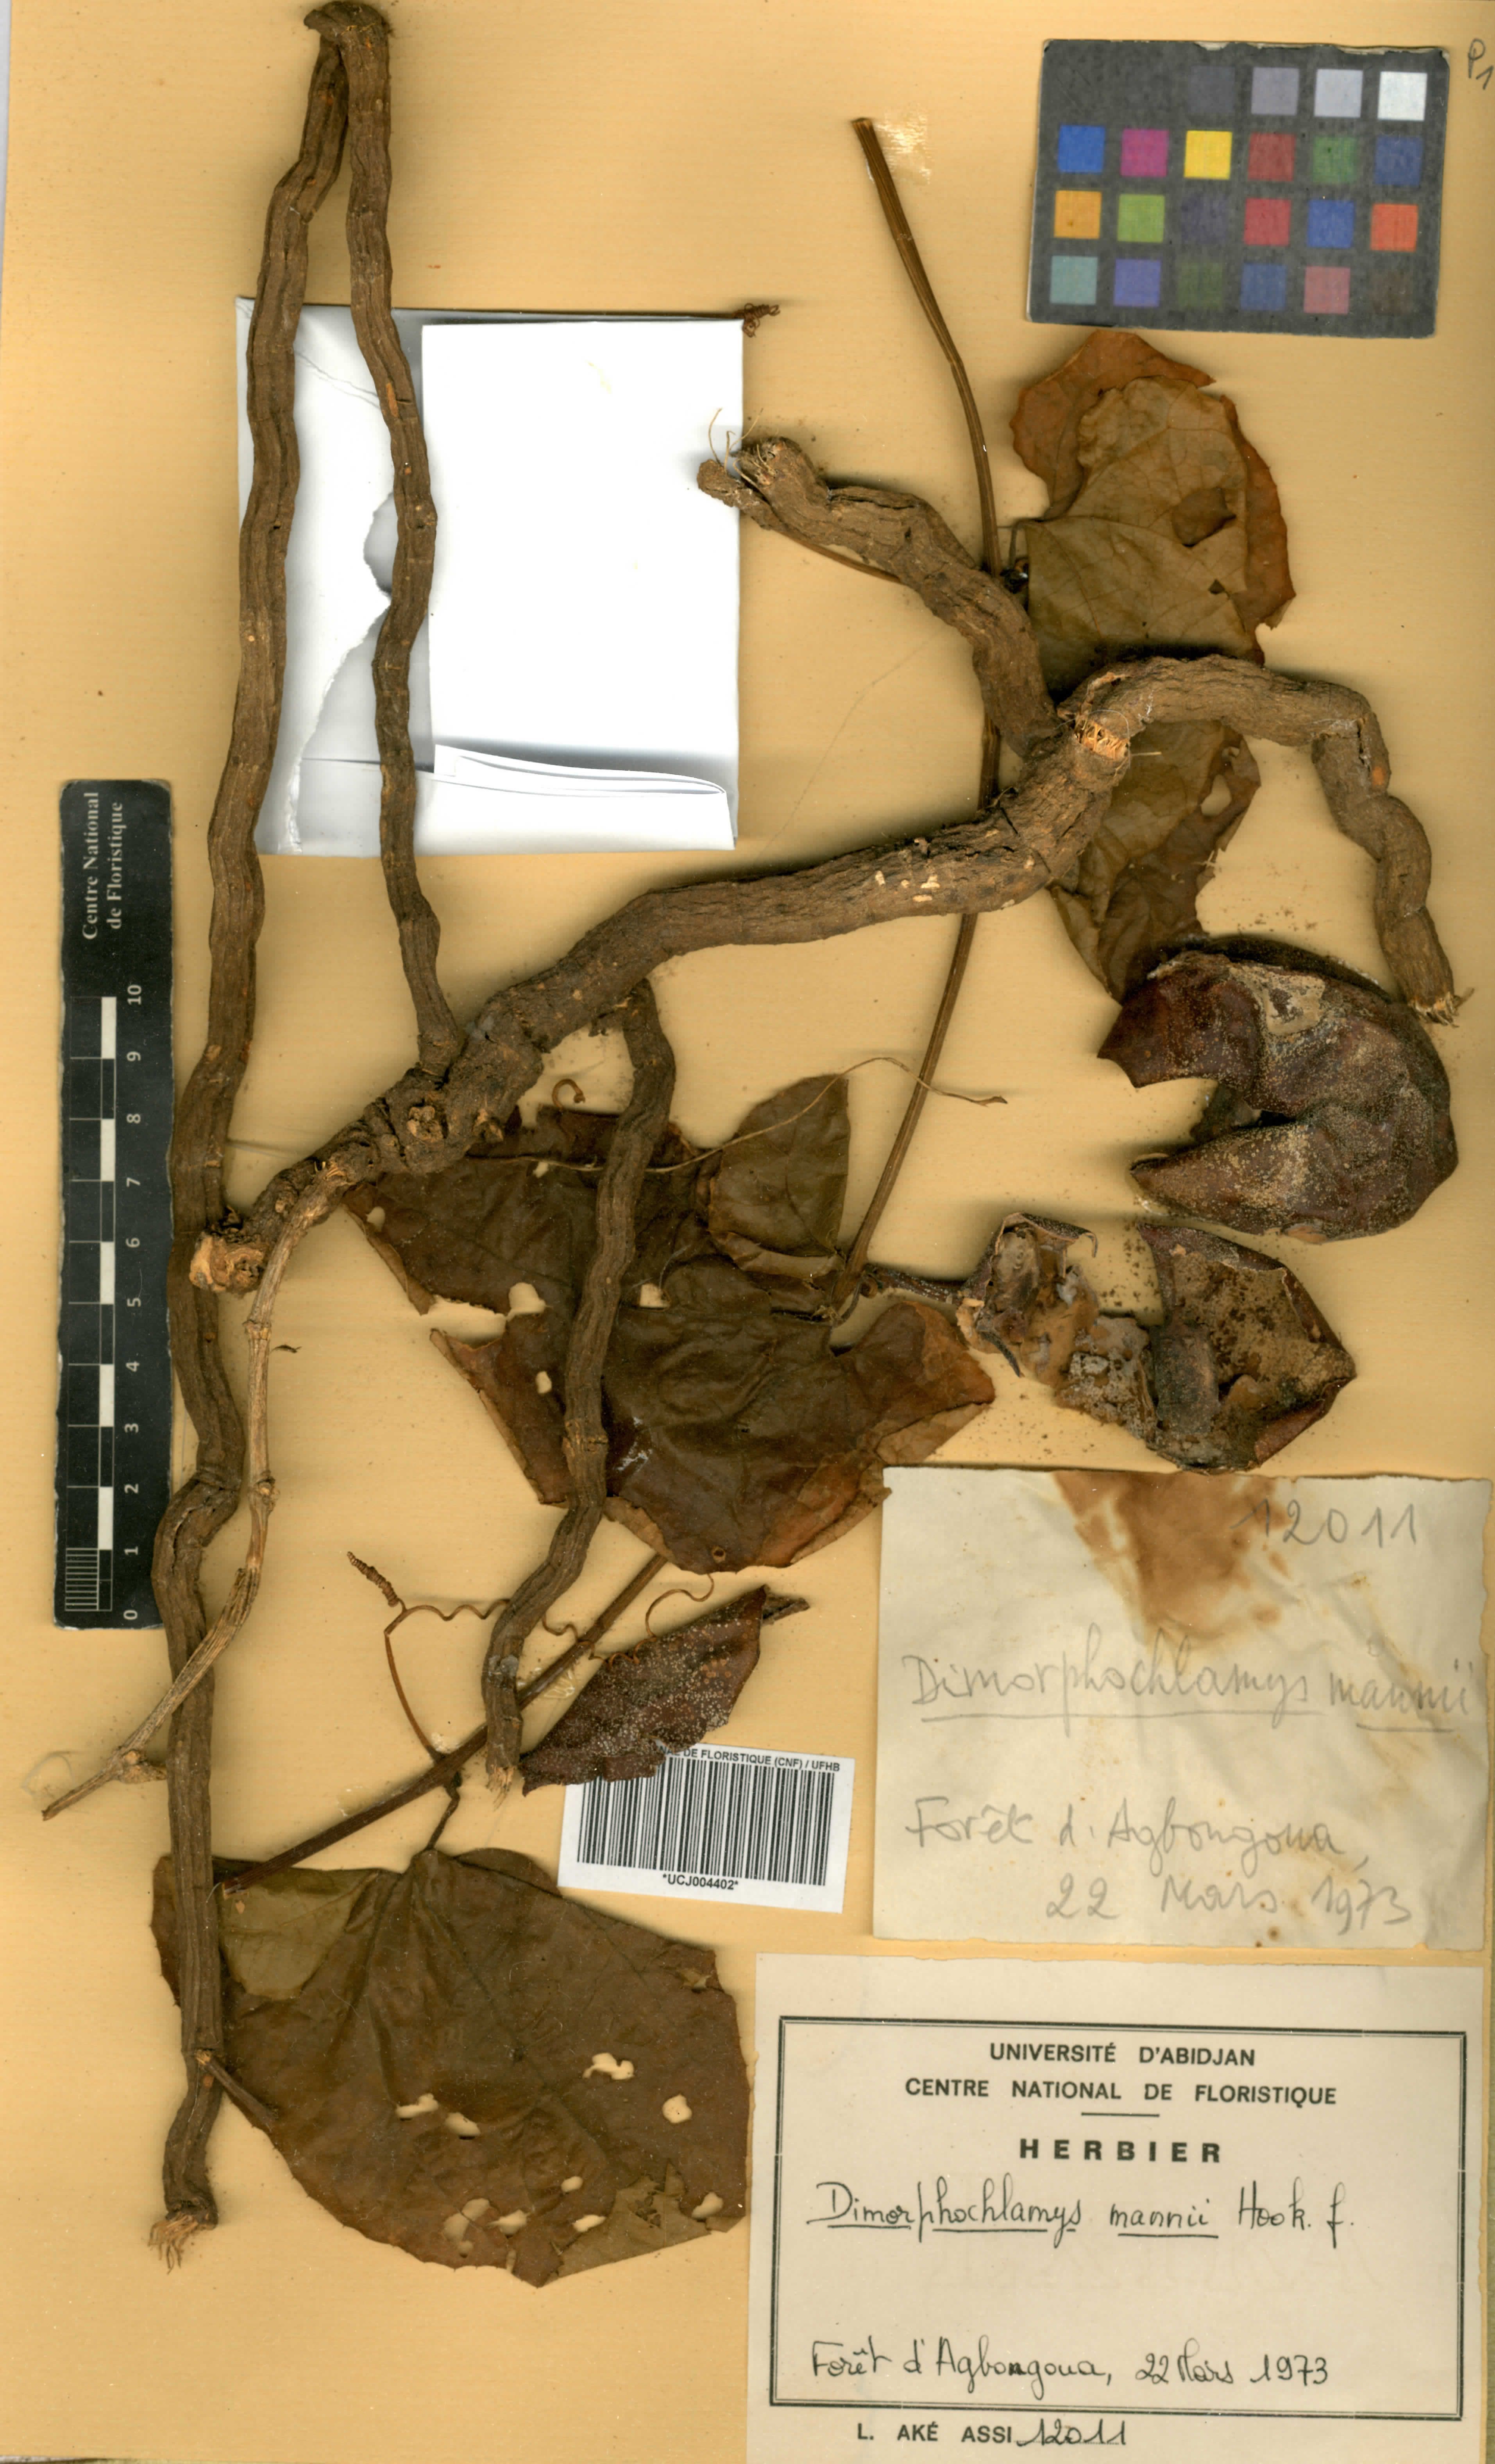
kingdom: Plantae
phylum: Tracheophyta
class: Magnoliopsida
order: Cucurbitales
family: Cucurbitaceae
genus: Momordica
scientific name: Momordica cabrae
